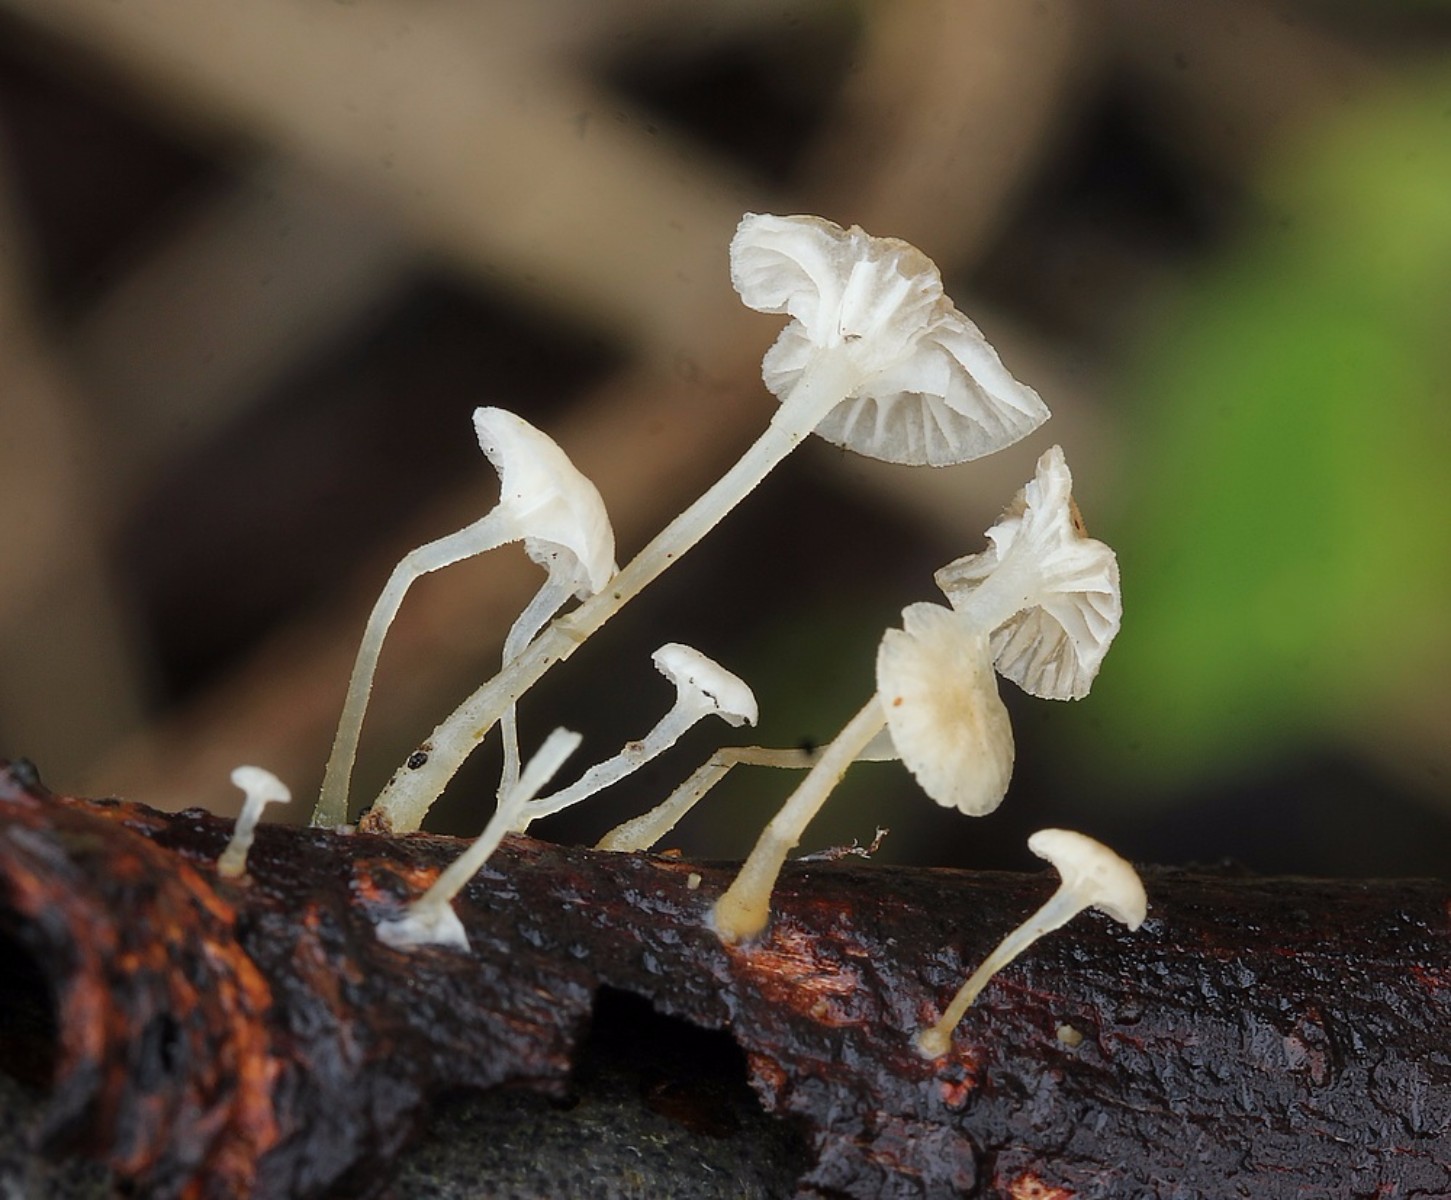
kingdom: Fungi
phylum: Basidiomycota
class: Agaricomycetes
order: Agaricales
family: Porotheleaceae
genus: Phloeomana
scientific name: Phloeomana speirea
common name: kvist-huesvamp
